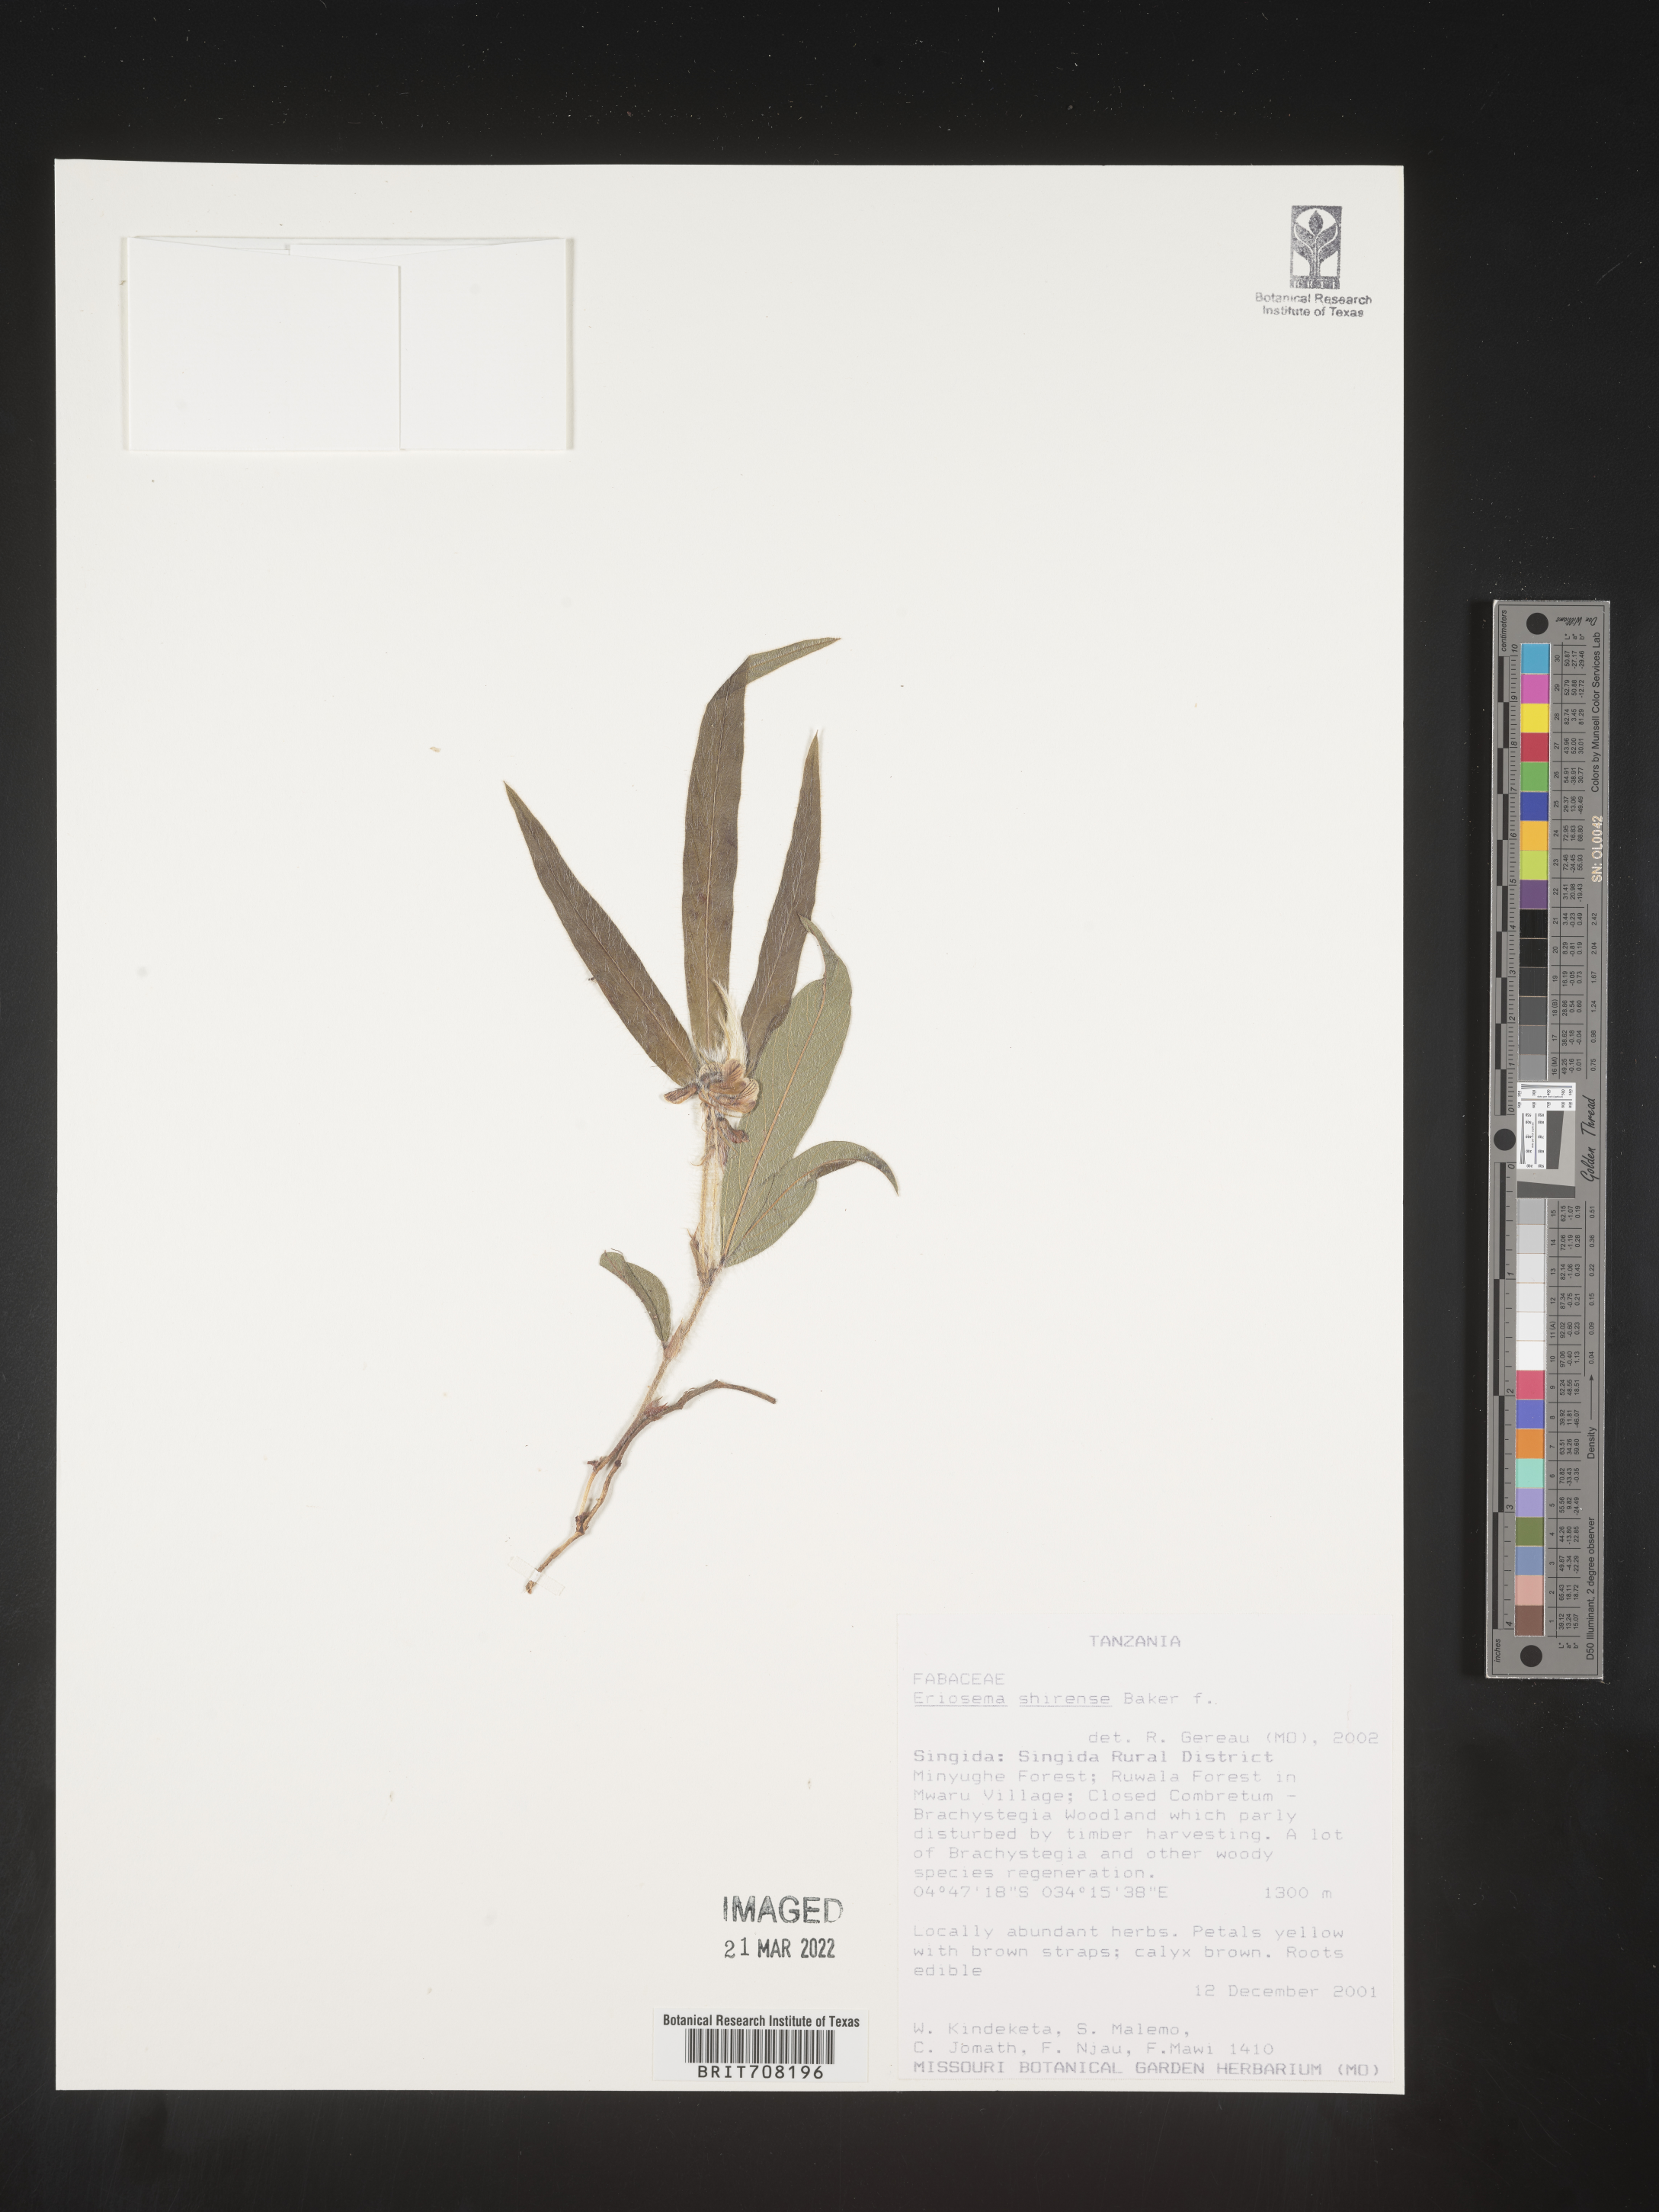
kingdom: Plantae
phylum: Tracheophyta
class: Magnoliopsida
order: Fabales
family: Fabaceae
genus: Eriosema
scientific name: Eriosema
